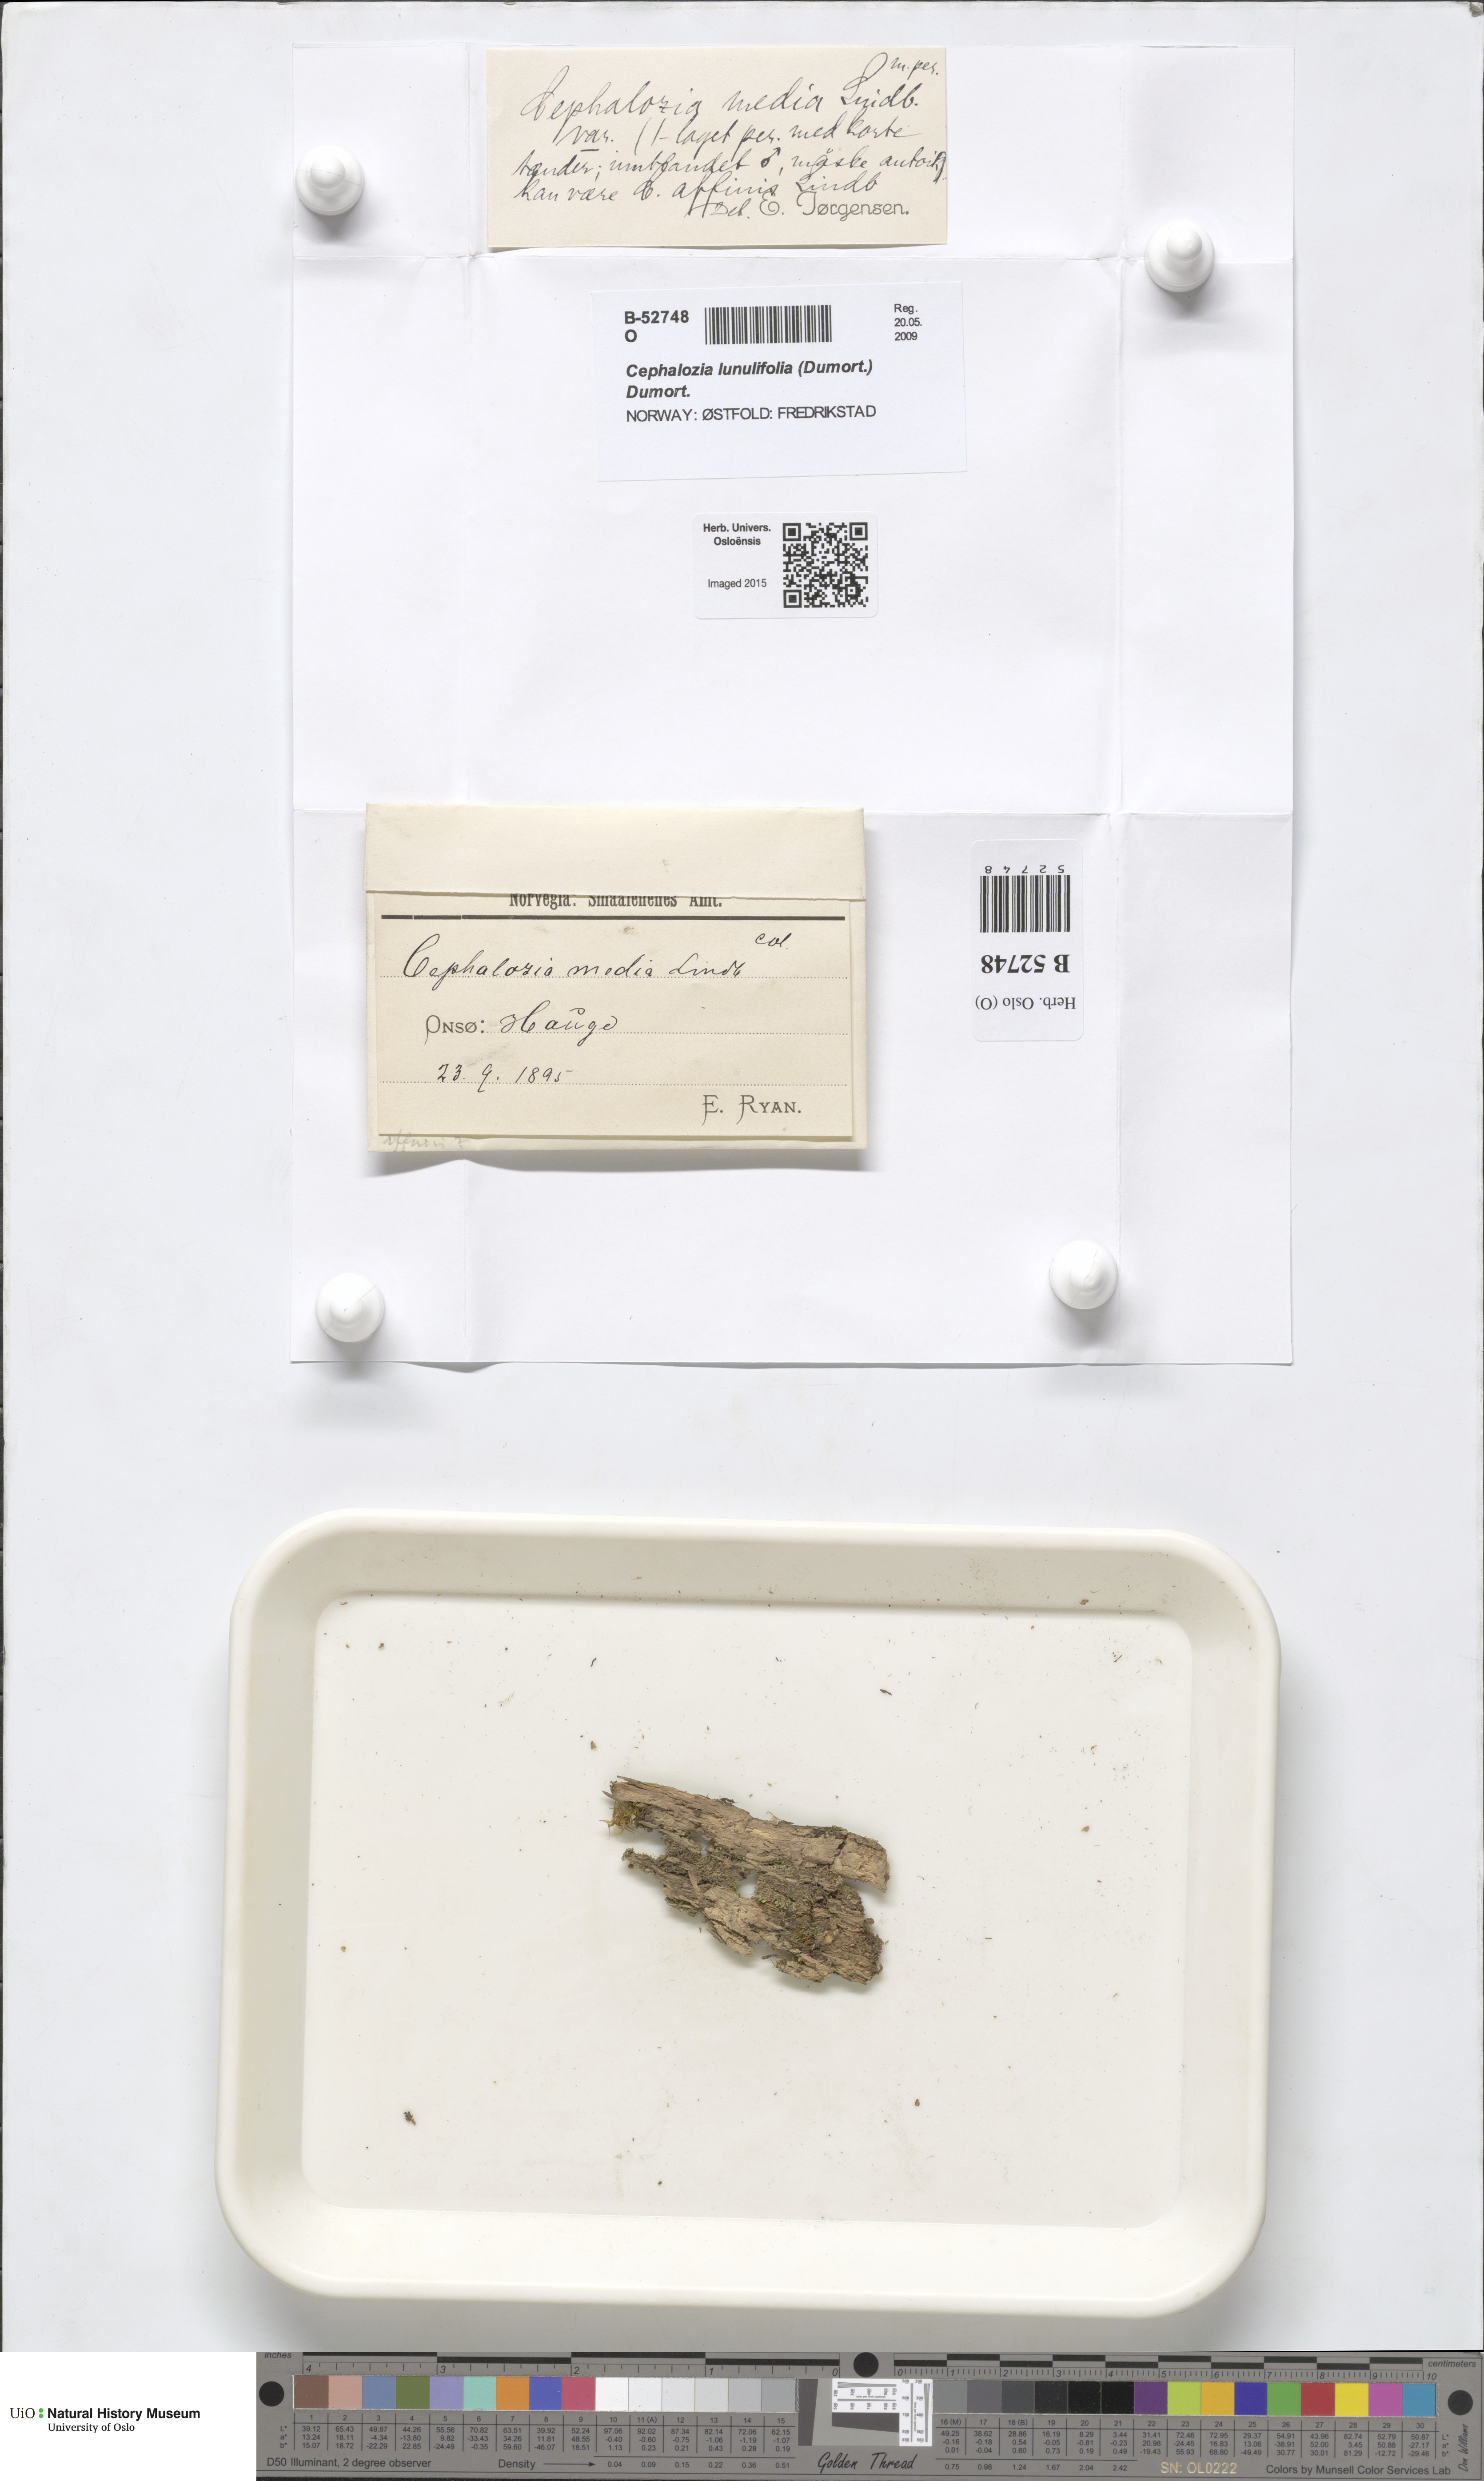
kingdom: Plantae
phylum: Marchantiophyta
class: Jungermanniopsida
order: Jungermanniales
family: Cephaloziaceae
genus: Fuscocephaloziopsis
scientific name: Fuscocephaloziopsis lunulifolia
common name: Moon-leaved pincerwort
